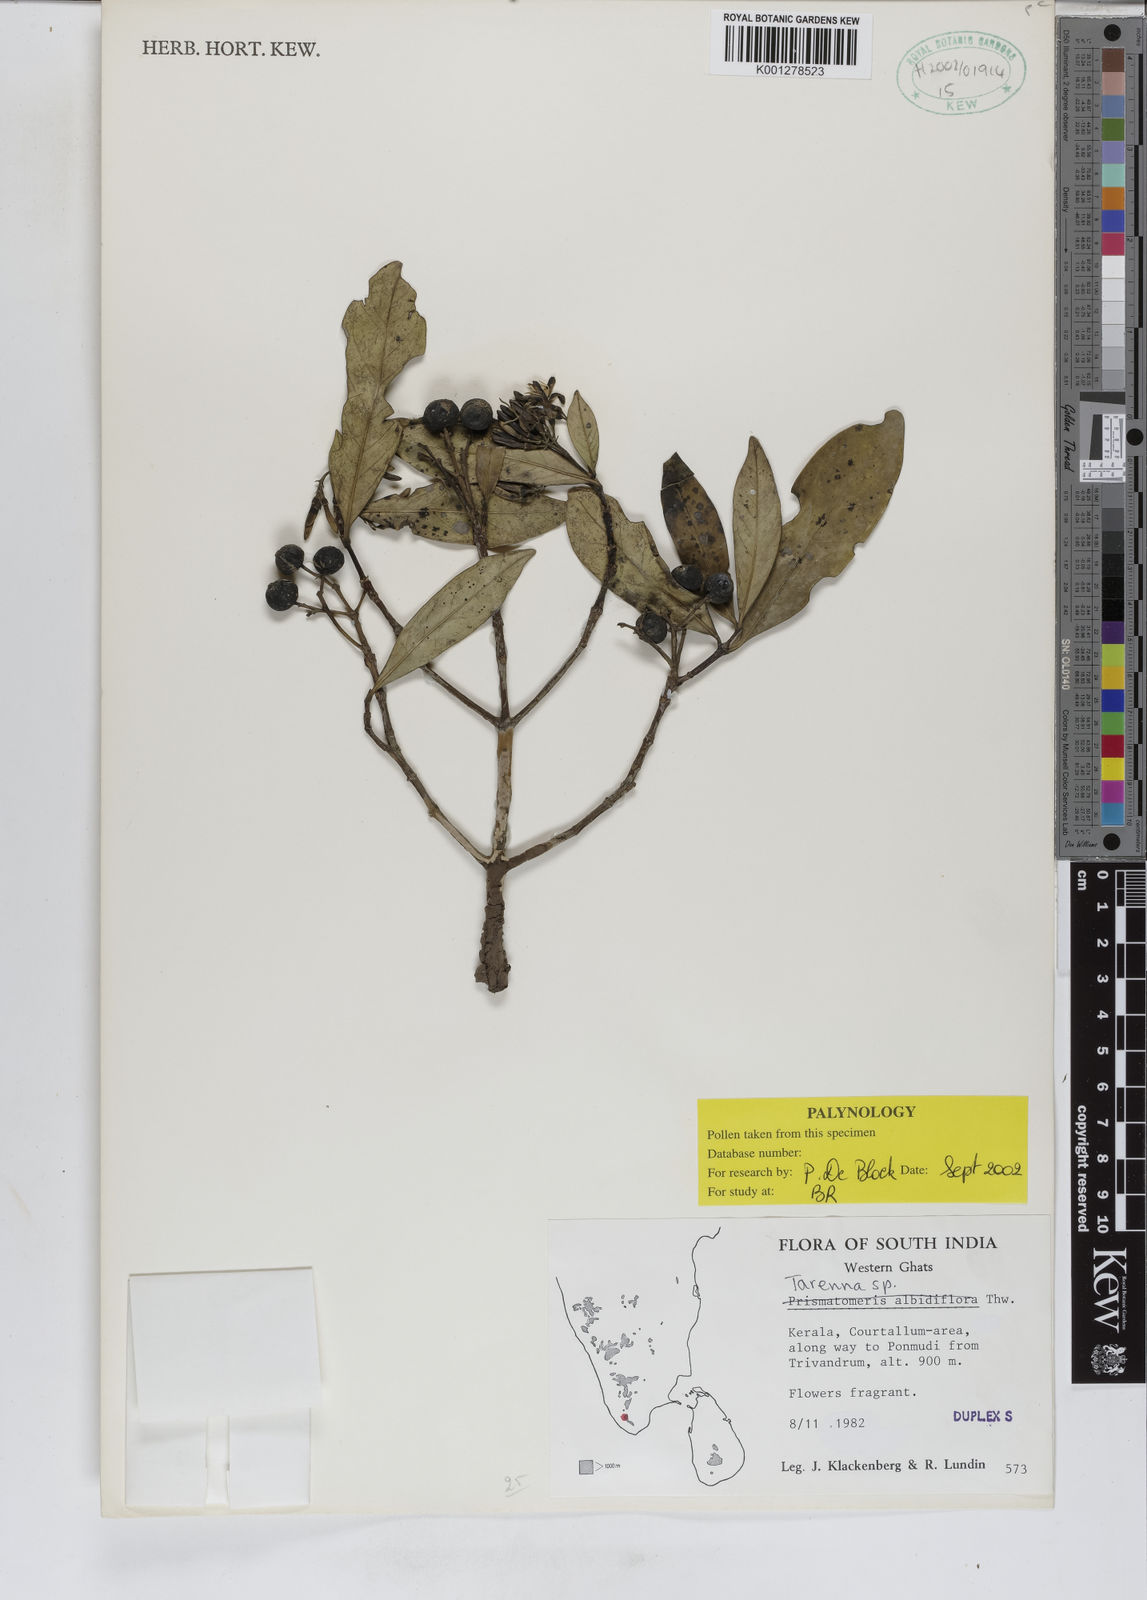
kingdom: Plantae
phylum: Tracheophyta
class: Magnoliopsida
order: Gentianales
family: Rubiaceae
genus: Tarenna
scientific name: Tarenna
